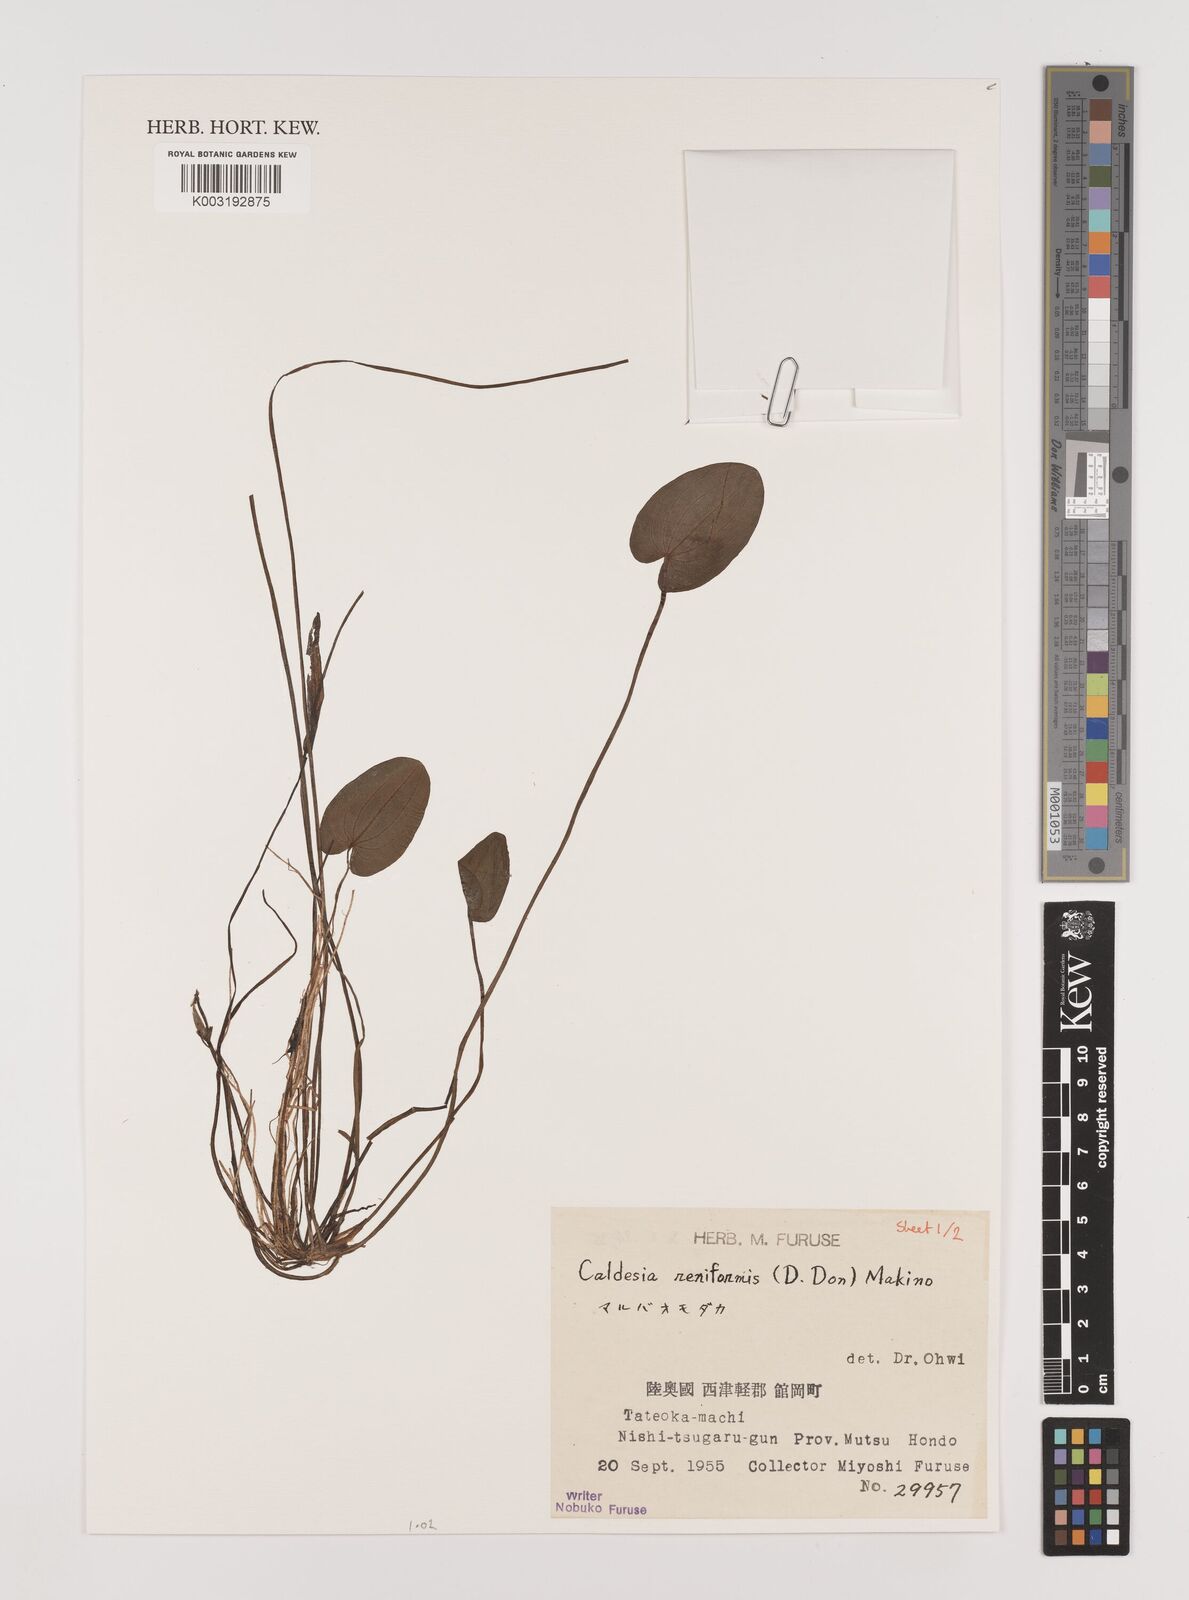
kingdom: Plantae
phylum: Tracheophyta
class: Liliopsida
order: Alismatales
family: Alismataceae
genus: Caldesia
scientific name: Caldesia parnassifolia
